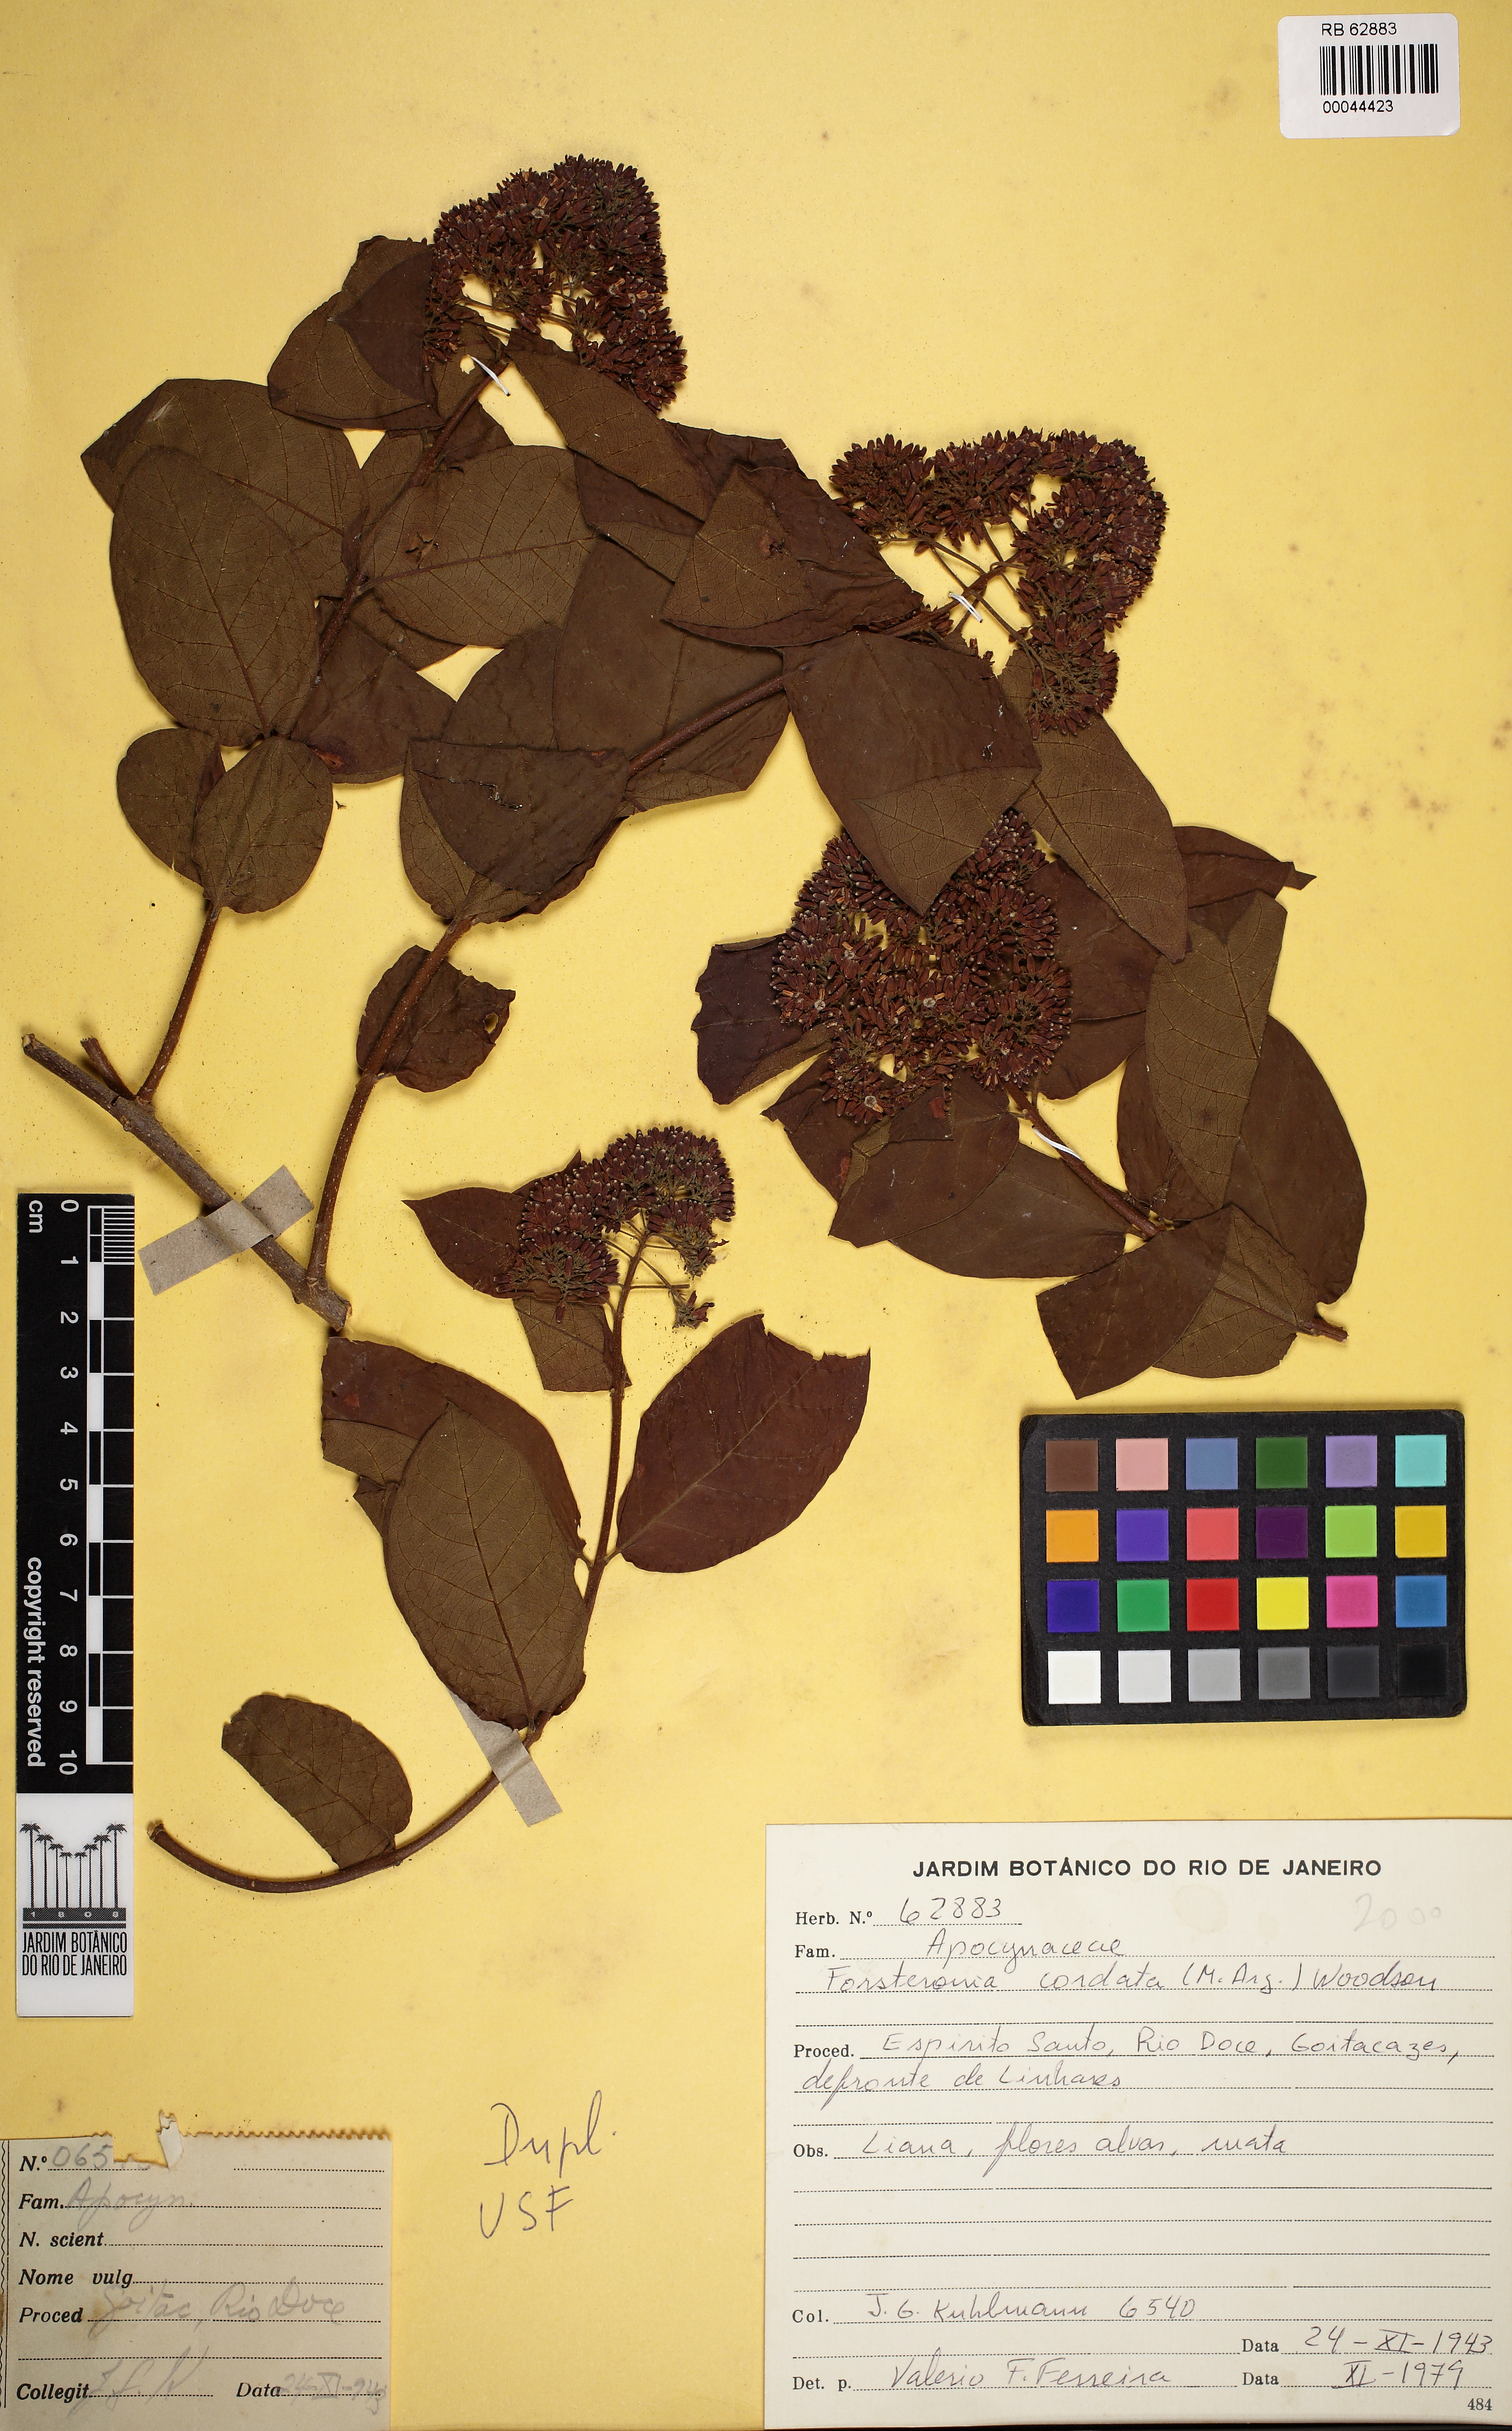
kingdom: Plantae
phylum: Tracheophyta
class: Magnoliopsida
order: Gentianales
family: Apocynaceae
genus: Forsteronia
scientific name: Forsteronia cordata
